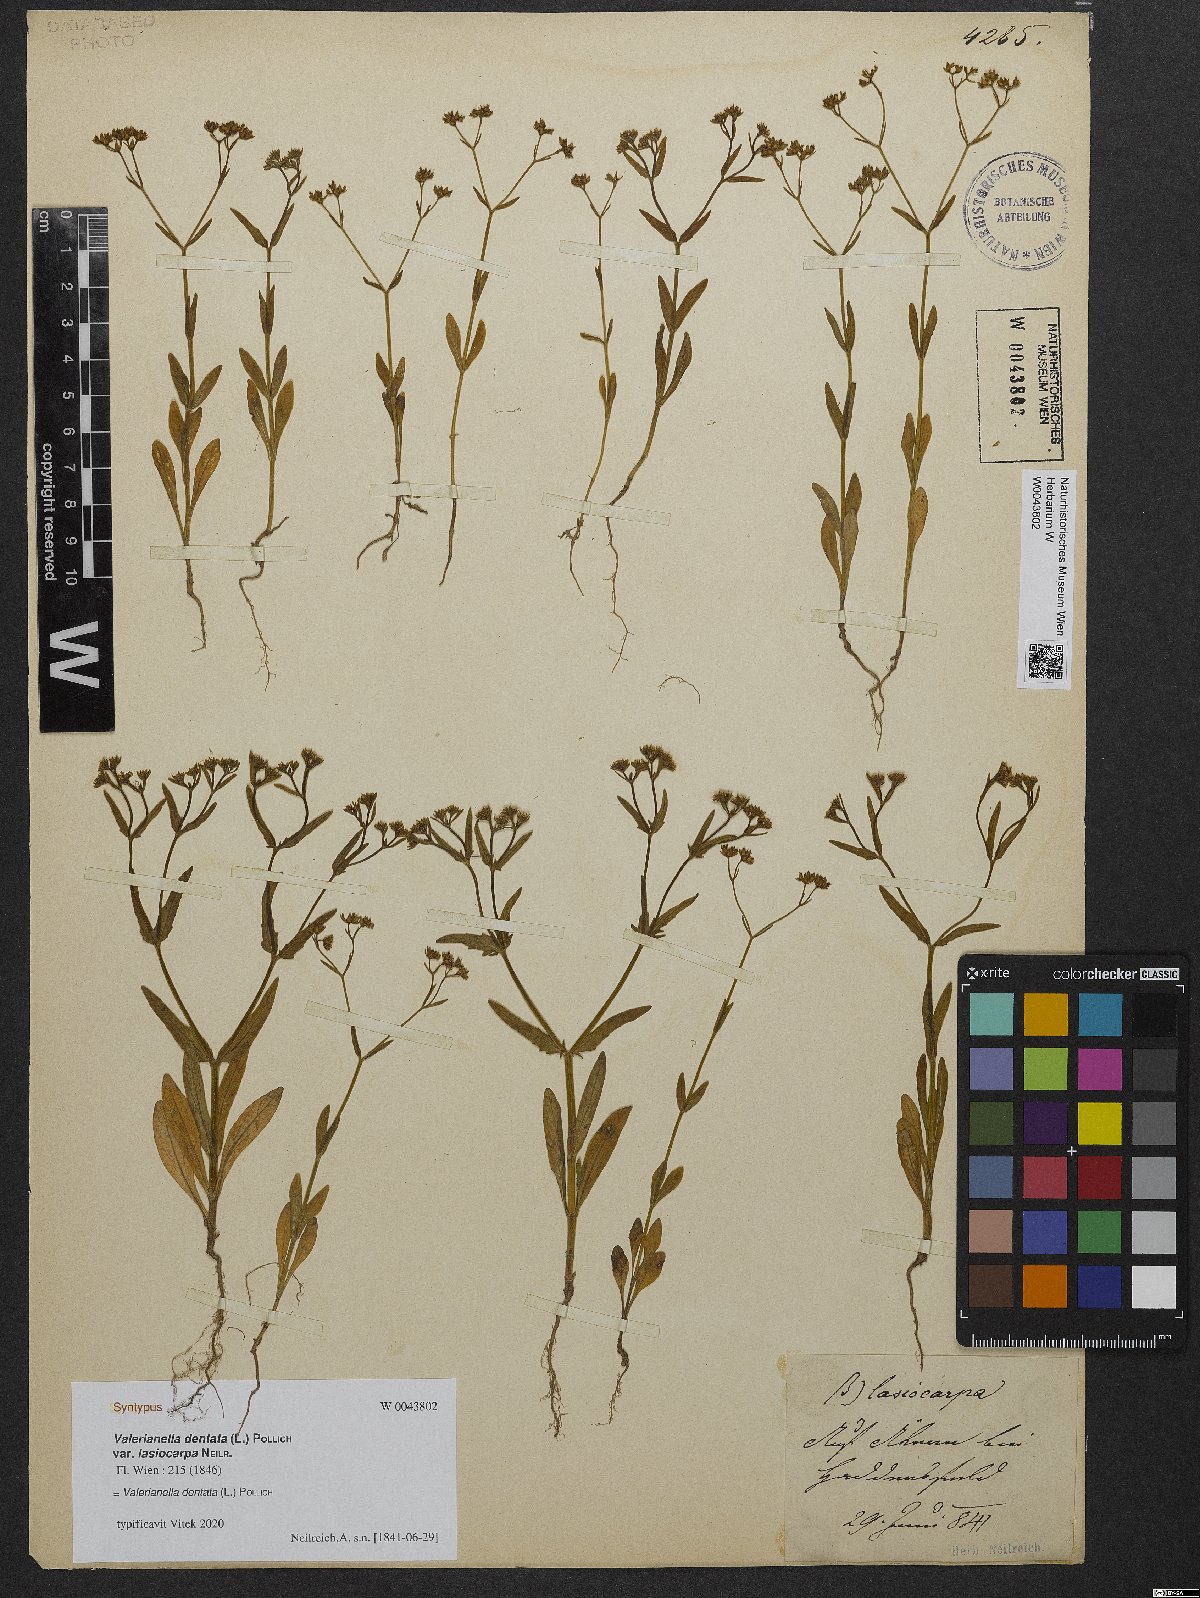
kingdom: Plantae
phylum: Tracheophyta
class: Magnoliopsida
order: Dipsacales
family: Caprifoliaceae
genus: Valerianella
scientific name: Valerianella dentata
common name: Narrow-fruited cornsalad
